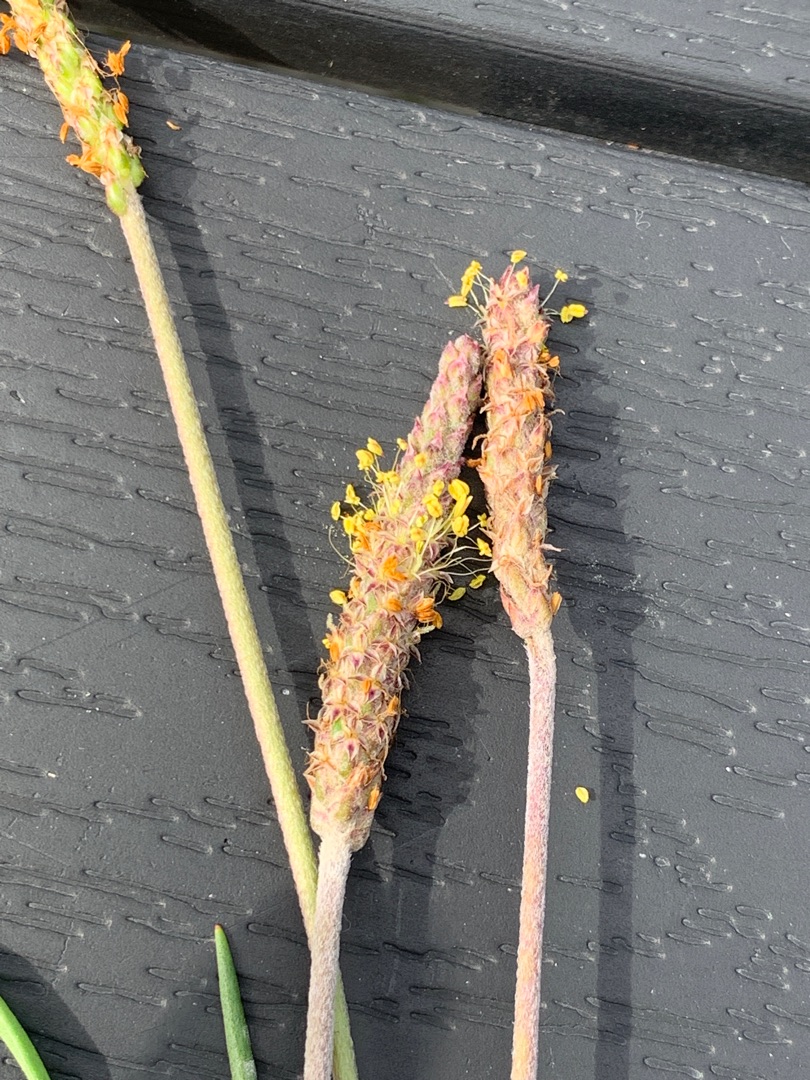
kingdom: Plantae
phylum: Tracheophyta
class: Magnoliopsida
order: Lamiales
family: Plantaginaceae
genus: Plantago
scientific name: Plantago maritima
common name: Strand-vejbred
